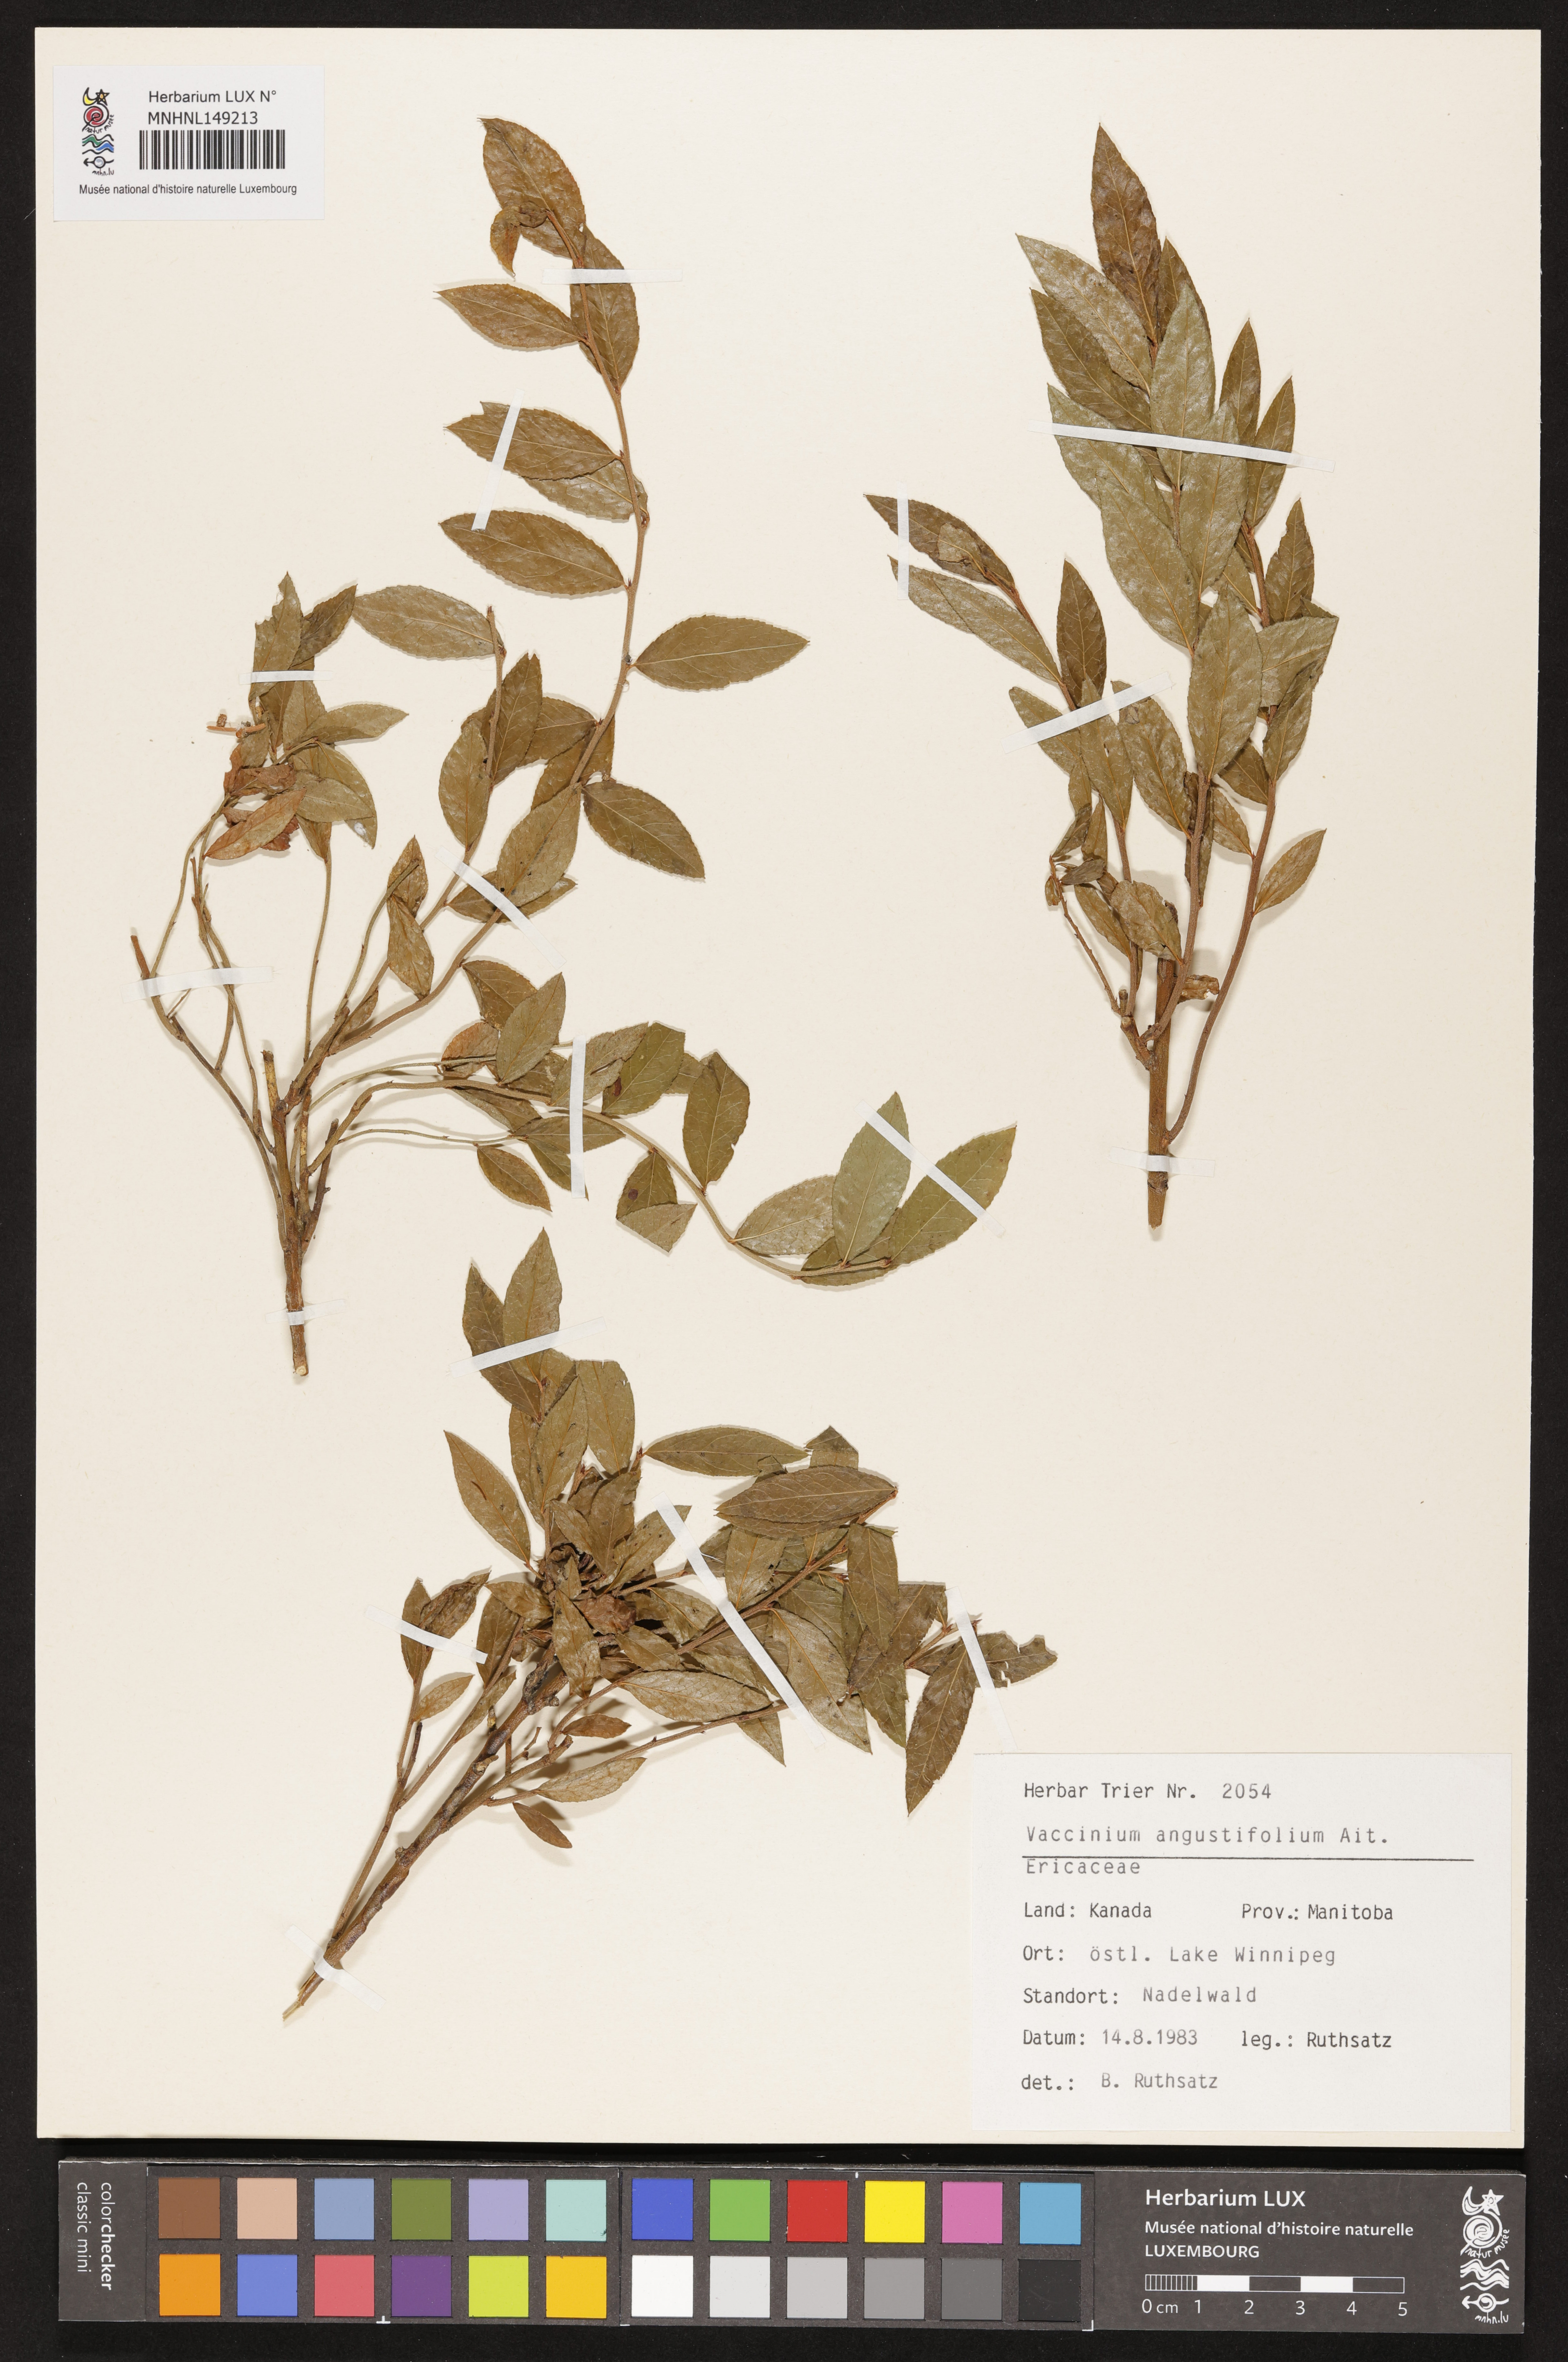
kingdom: Plantae
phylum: Tracheophyta
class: Magnoliopsida
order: Ericales
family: Ericaceae
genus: Vaccinium
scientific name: Vaccinium angustifolium
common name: Early lowbush blueberry
